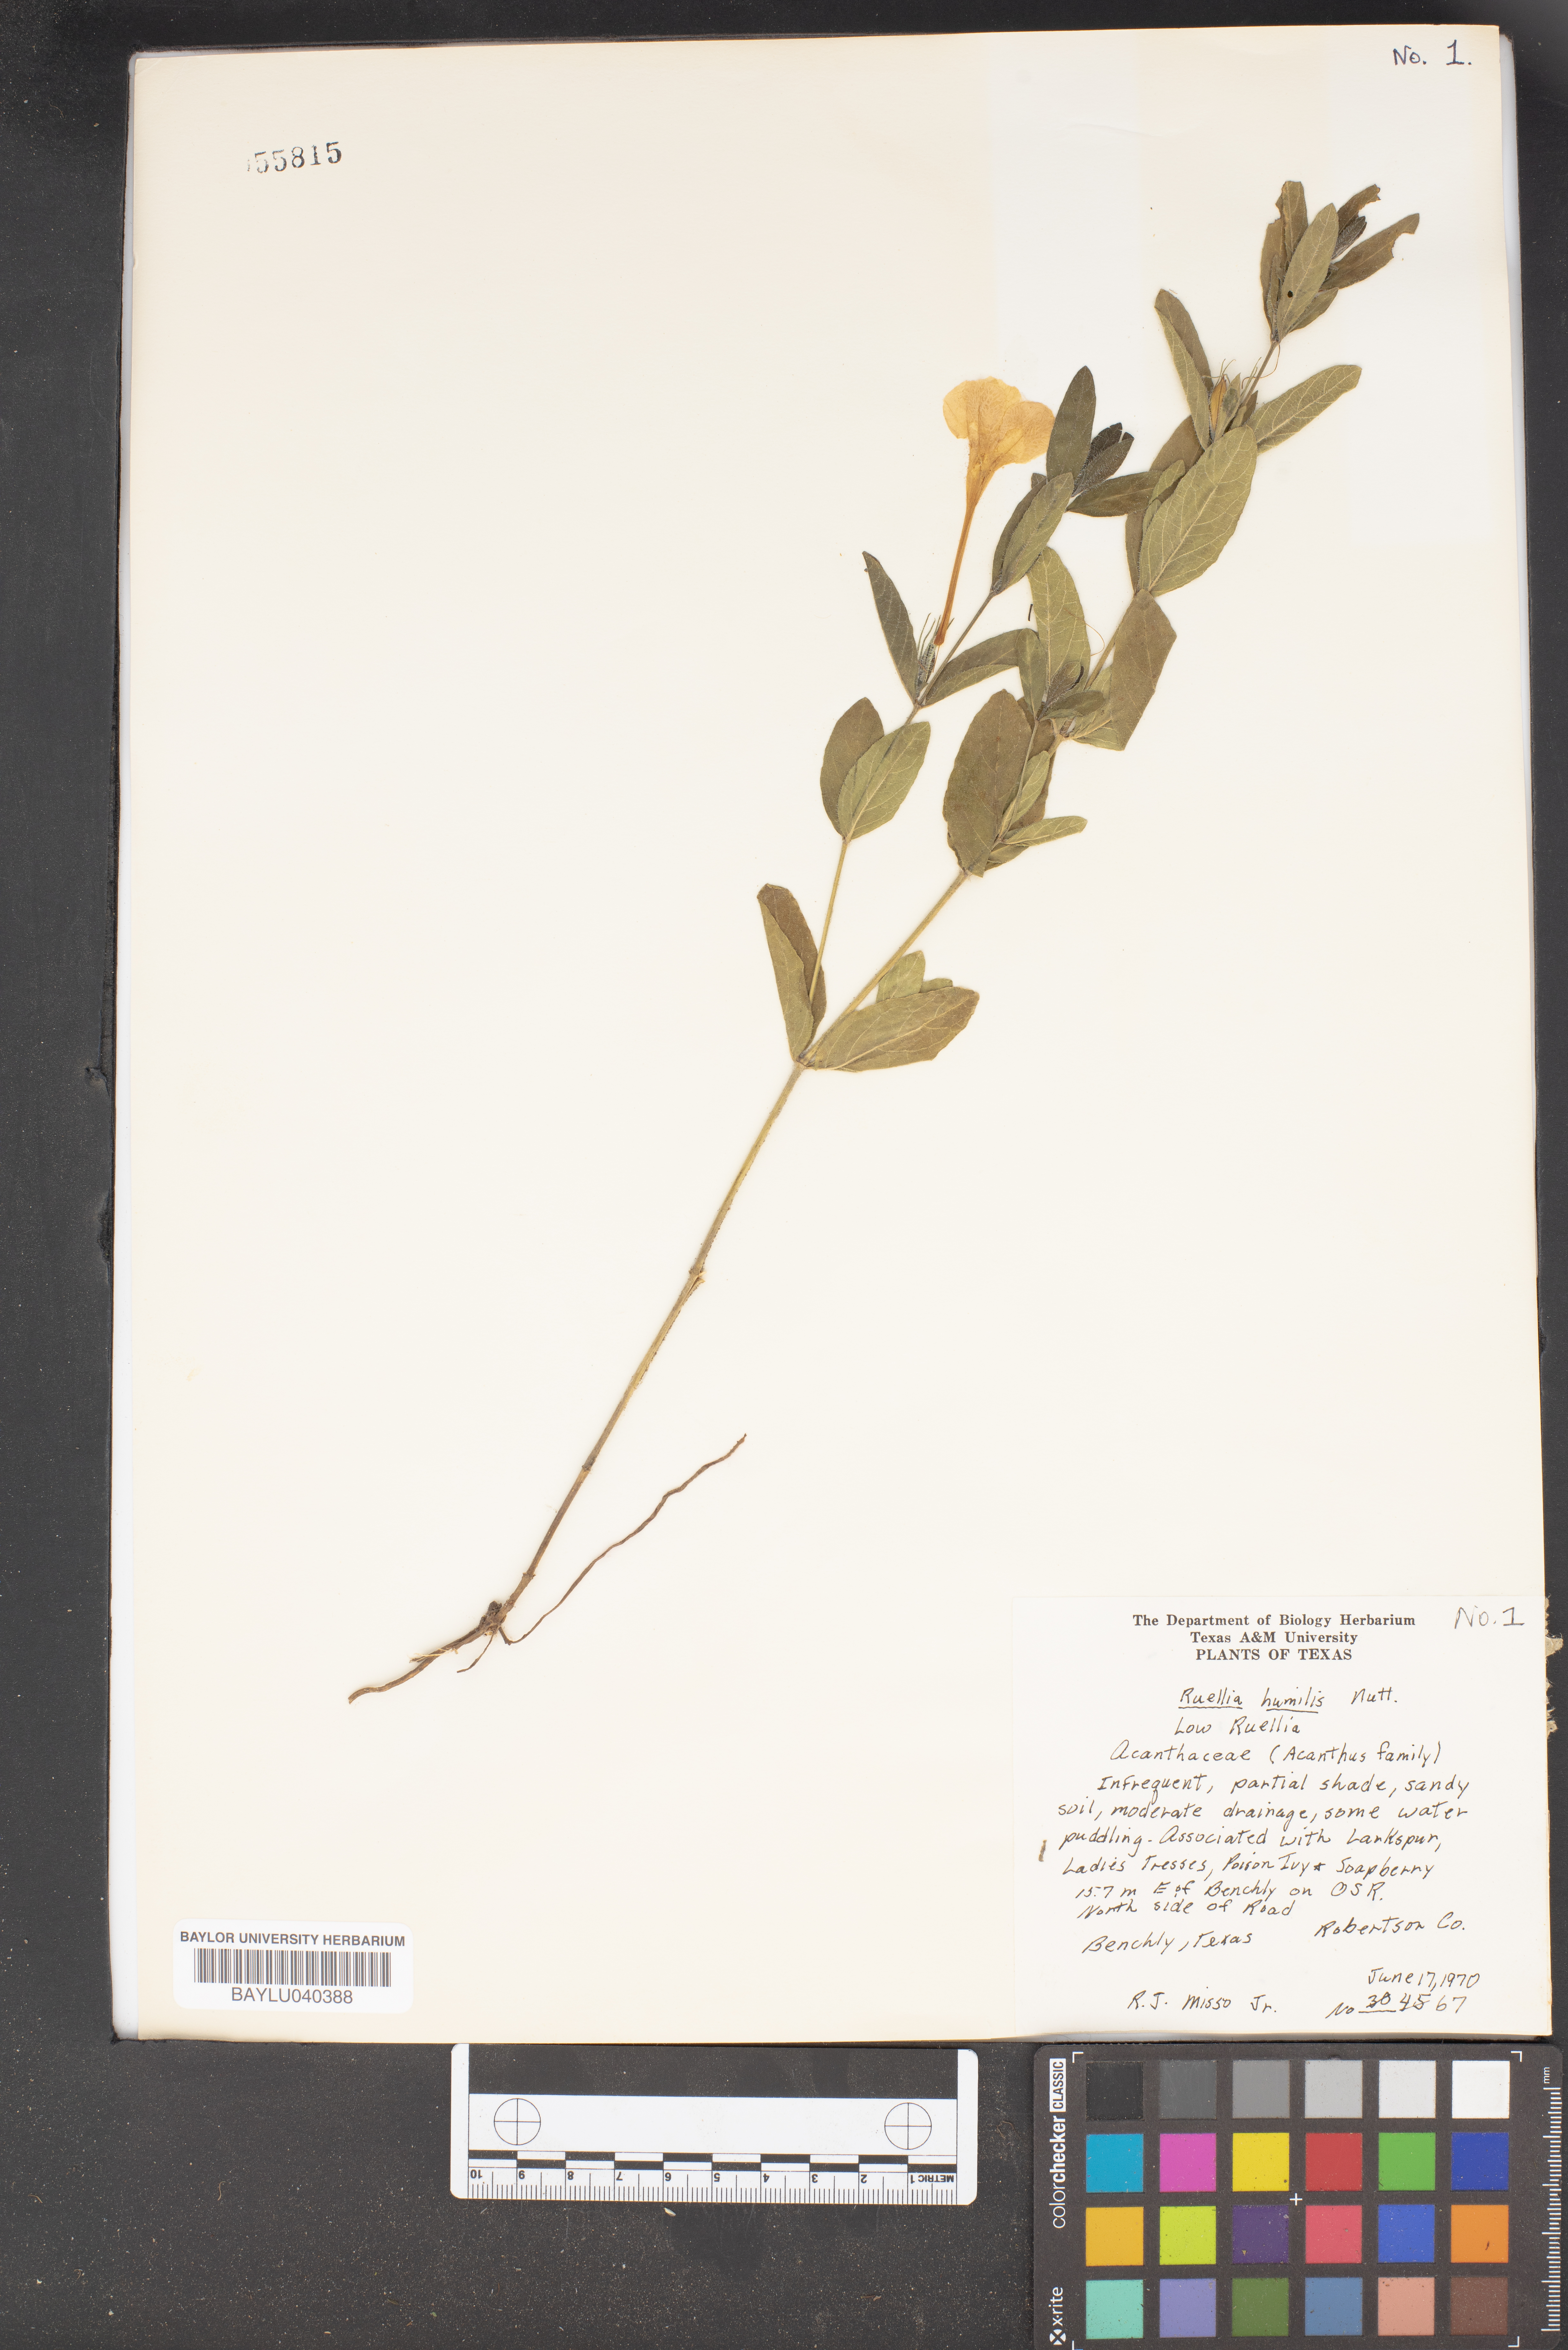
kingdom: Plantae
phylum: Tracheophyta
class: Magnoliopsida
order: Lamiales
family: Acanthaceae
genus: Ruellia
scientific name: Ruellia humilis
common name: Fringe-leaf ruellia
